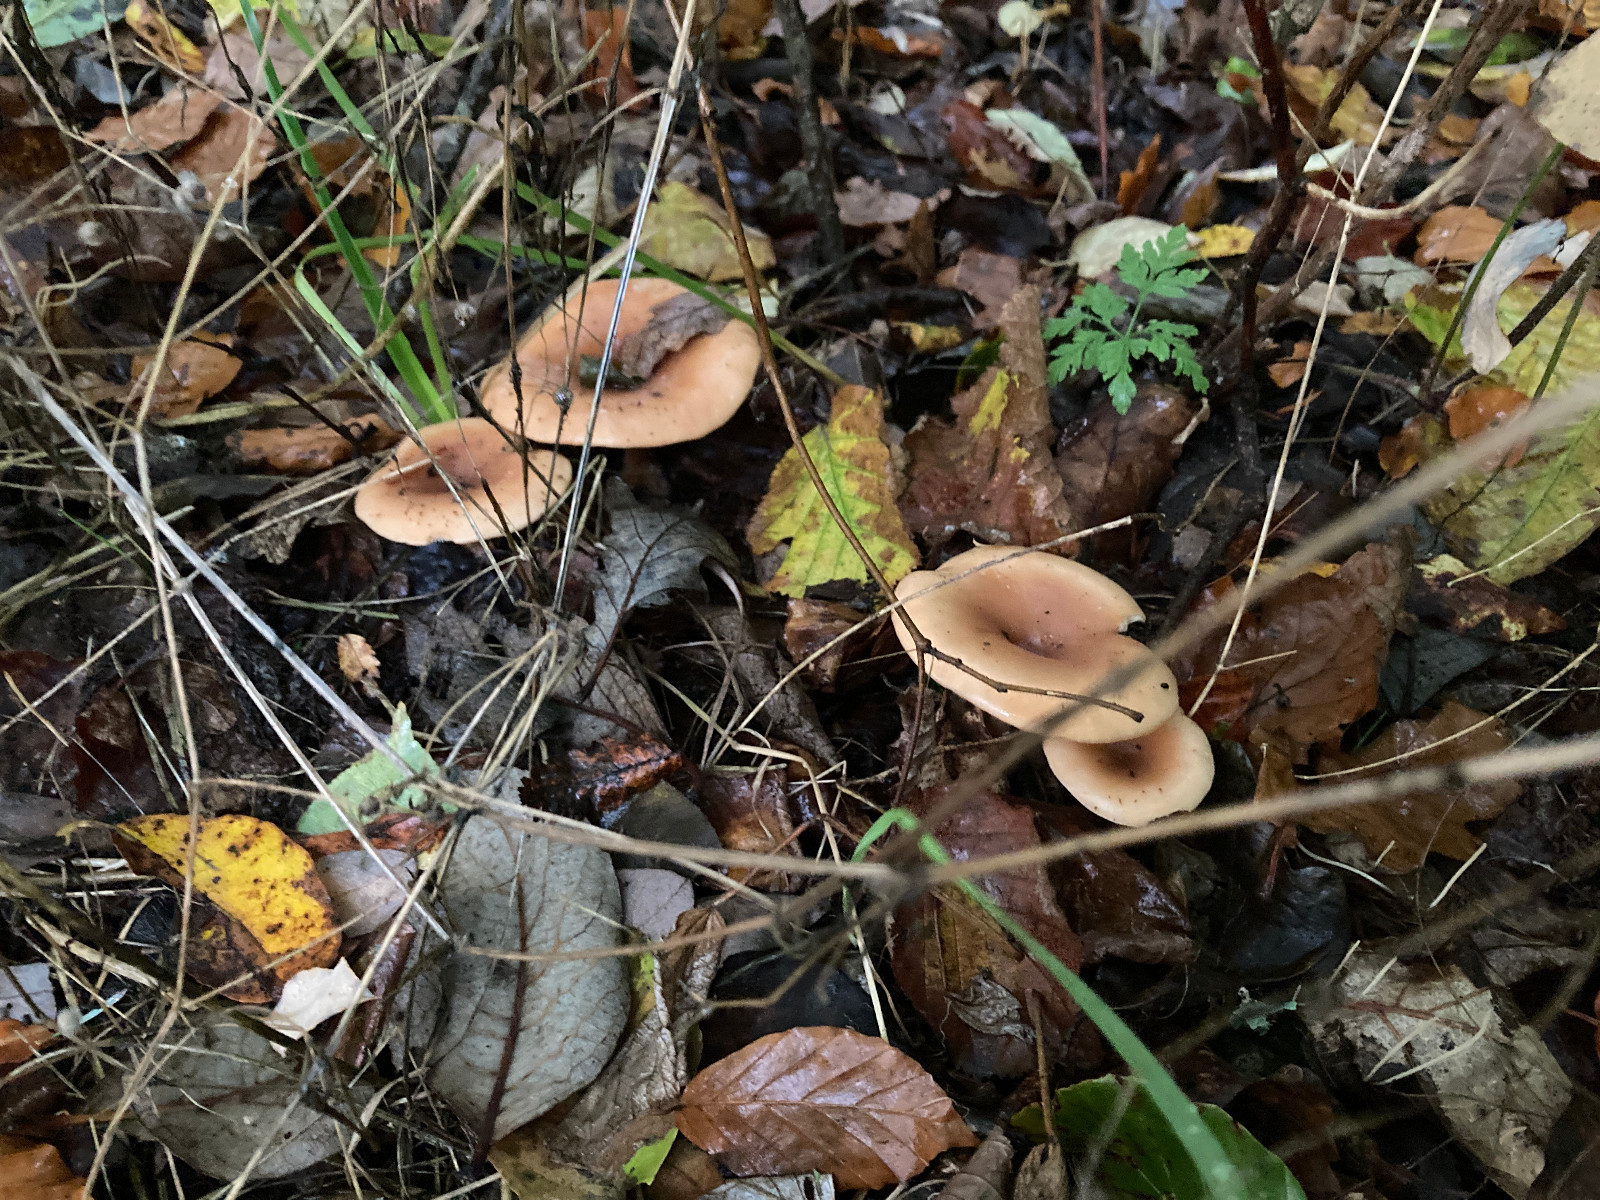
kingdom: Fungi
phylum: Basidiomycota
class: Agaricomycetes
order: Agaricales
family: Tricholomataceae
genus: Paralepista
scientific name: Paralepista flaccida
